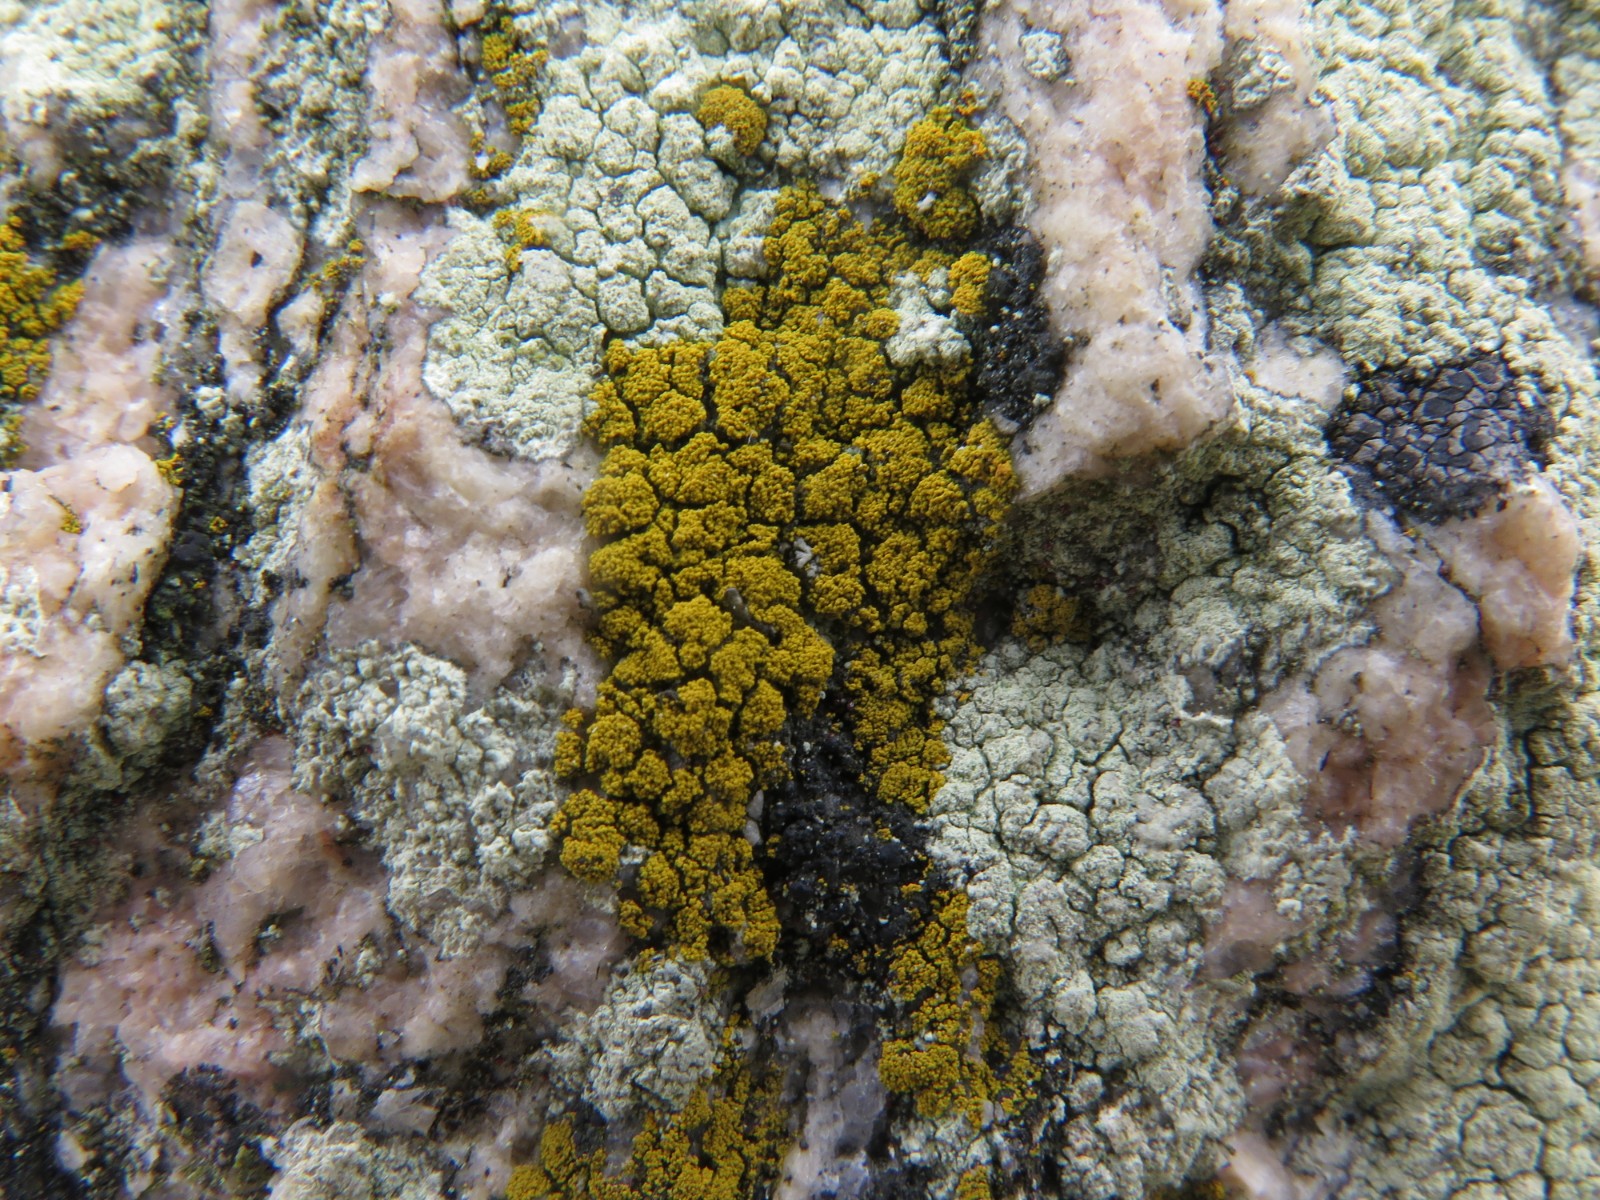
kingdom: Fungi
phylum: Ascomycota
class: Candelariomycetes
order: Candelariales
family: Candelariaceae
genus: Candelariella
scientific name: Candelariella vitellina
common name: almindelig æggeblommelav
